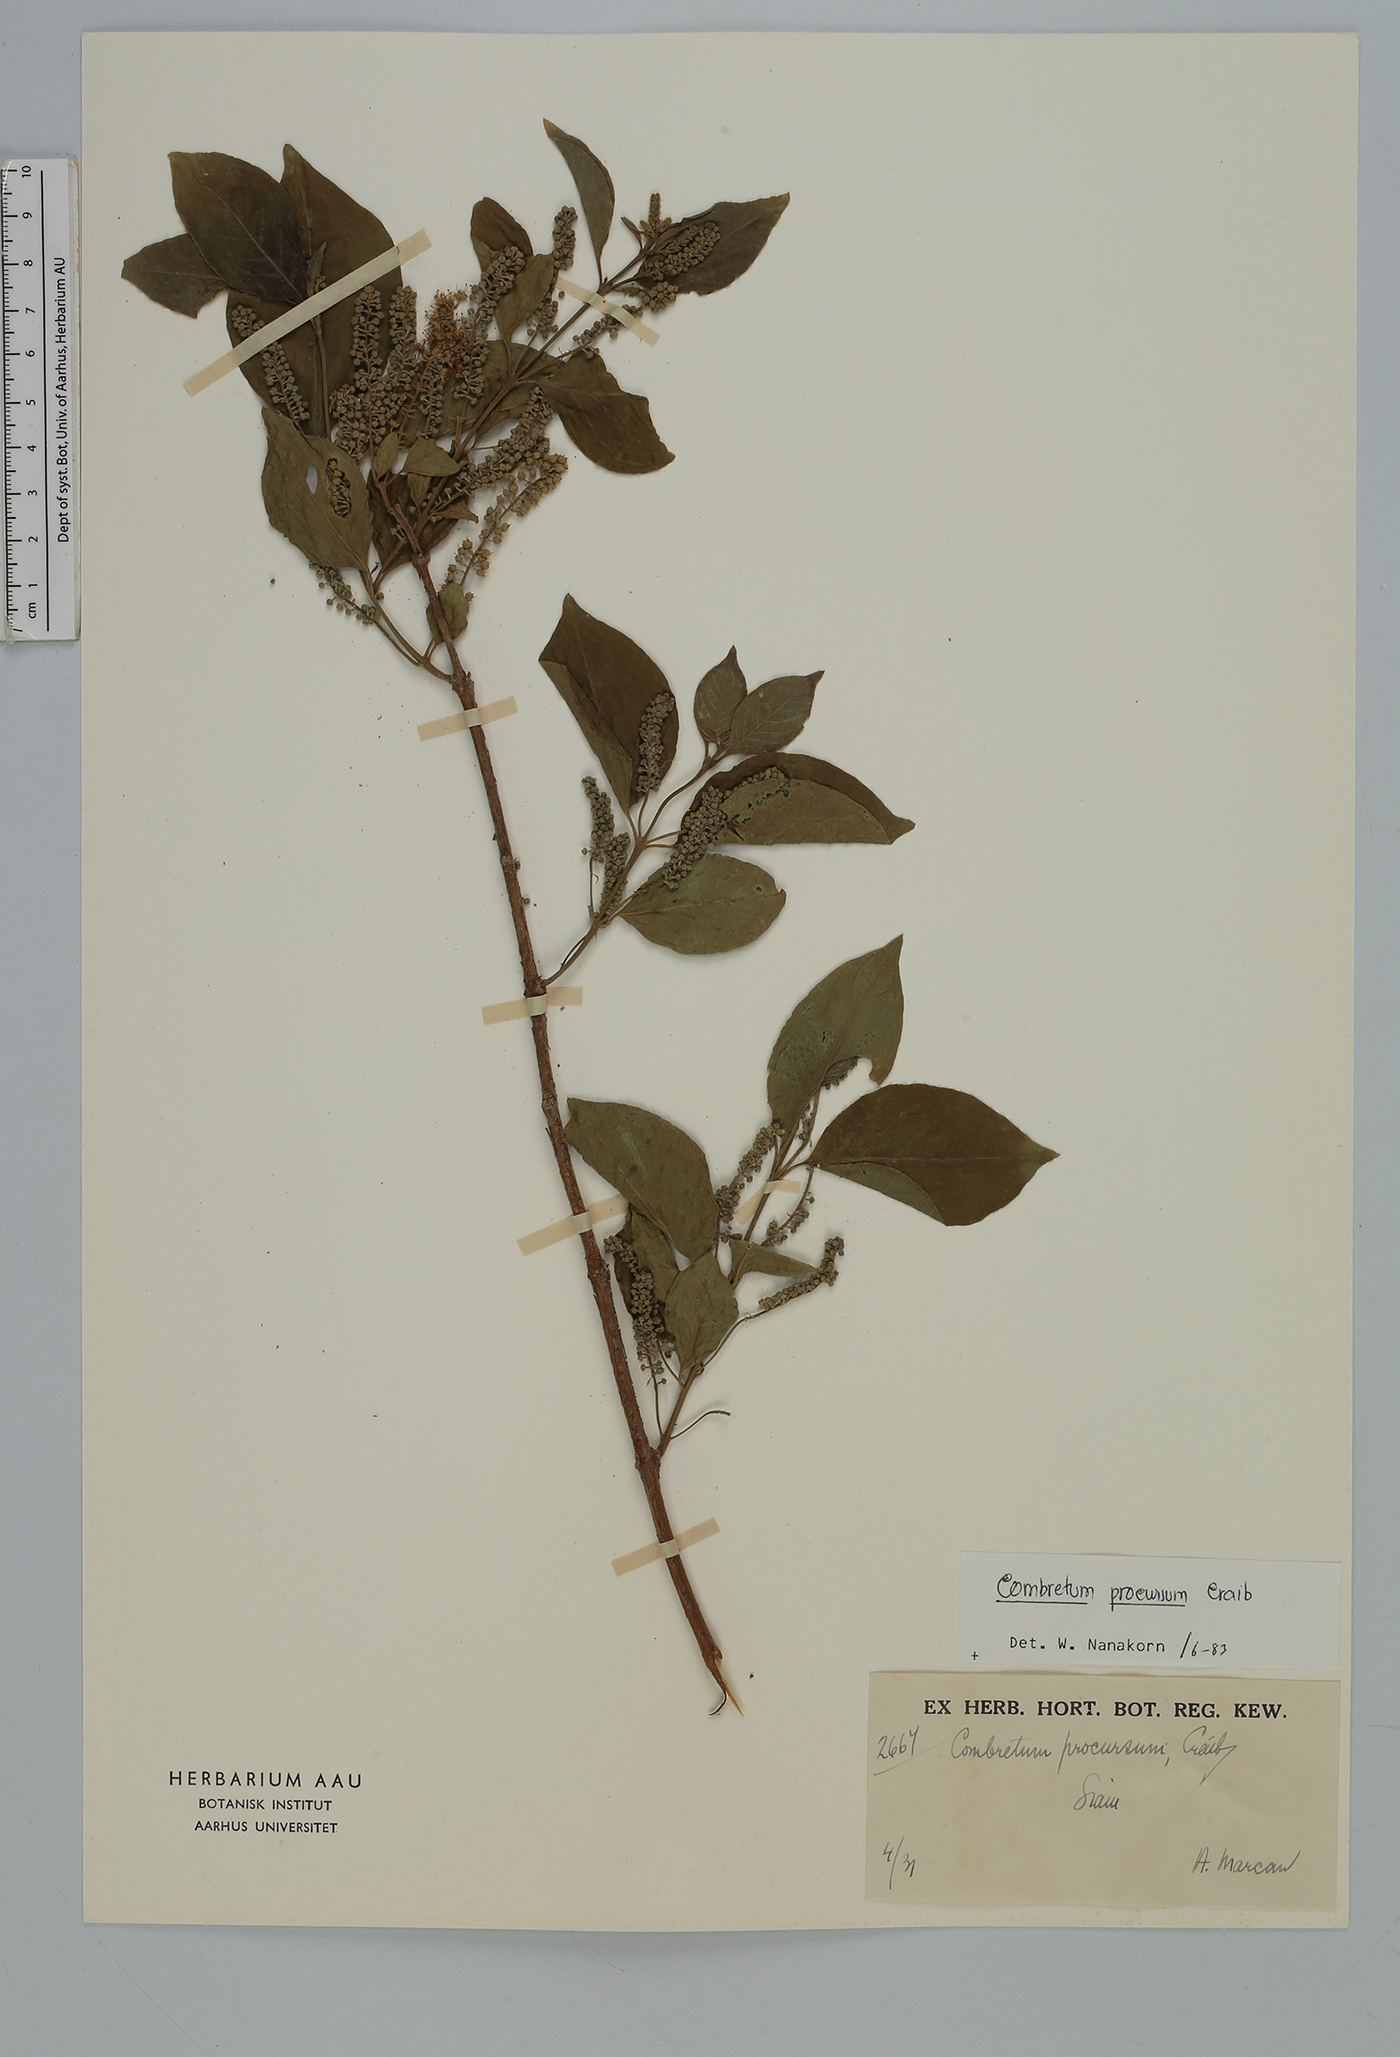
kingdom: Plantae
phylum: Tracheophyta
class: Magnoliopsida
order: Myrtales
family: Combretaceae
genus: Combretum
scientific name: Combretum procursum
